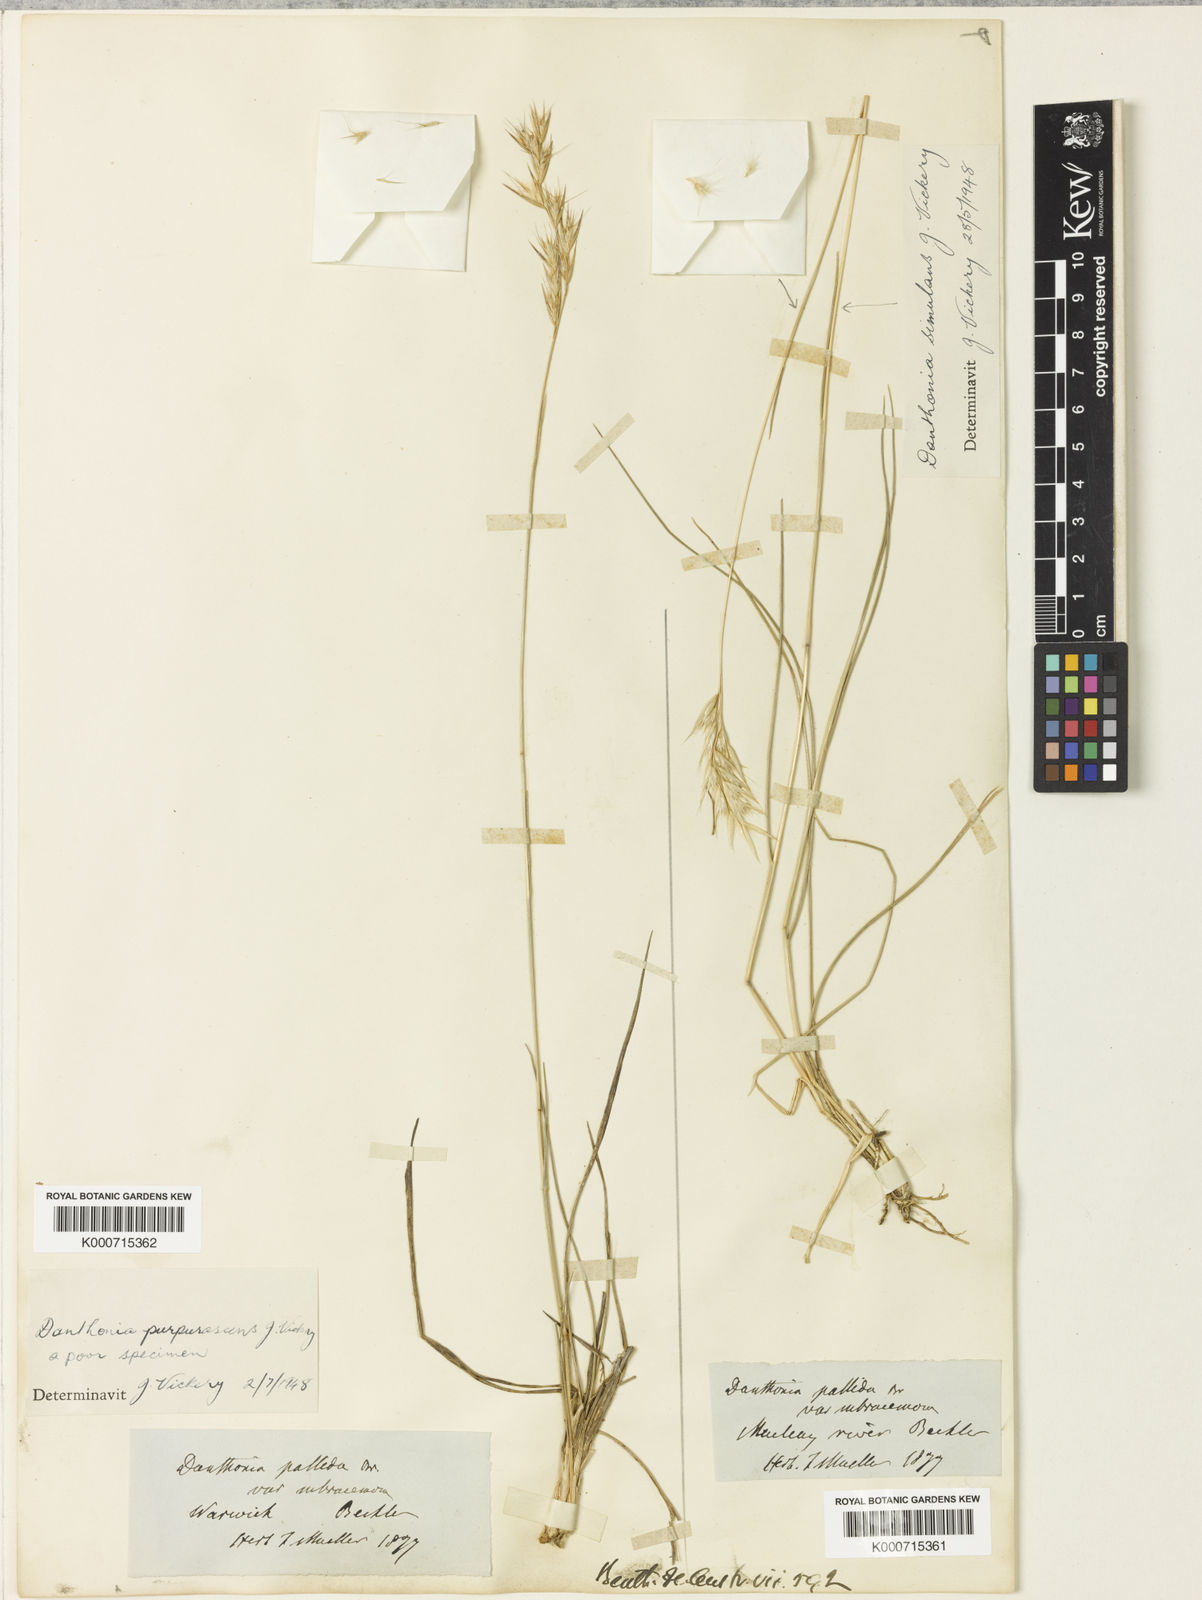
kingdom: Plantae
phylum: Tracheophyta
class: Liliopsida
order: Poales
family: Poaceae
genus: Rytidosperma
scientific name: Rytidosperma bipartitum
